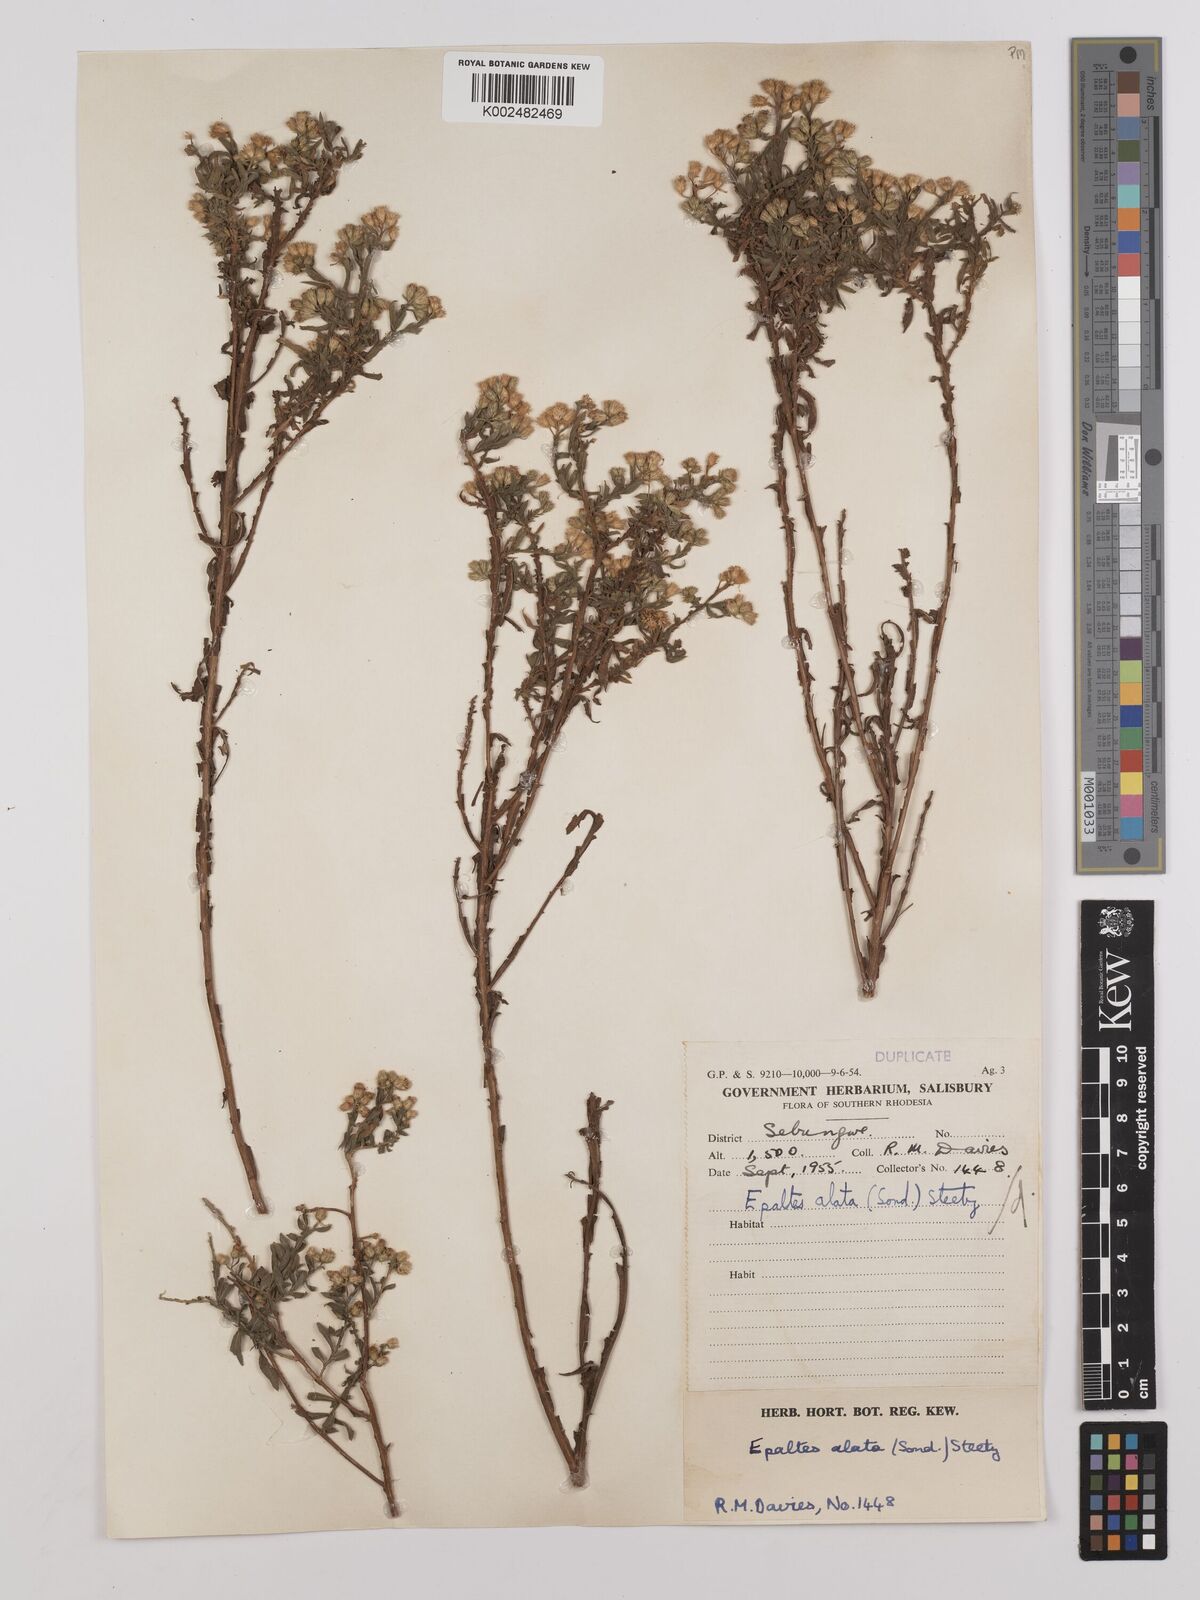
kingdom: Plantae
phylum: Tracheophyta
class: Magnoliopsida
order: Asterales
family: Asteraceae
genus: Litogyne
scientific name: Litogyne gariepina
